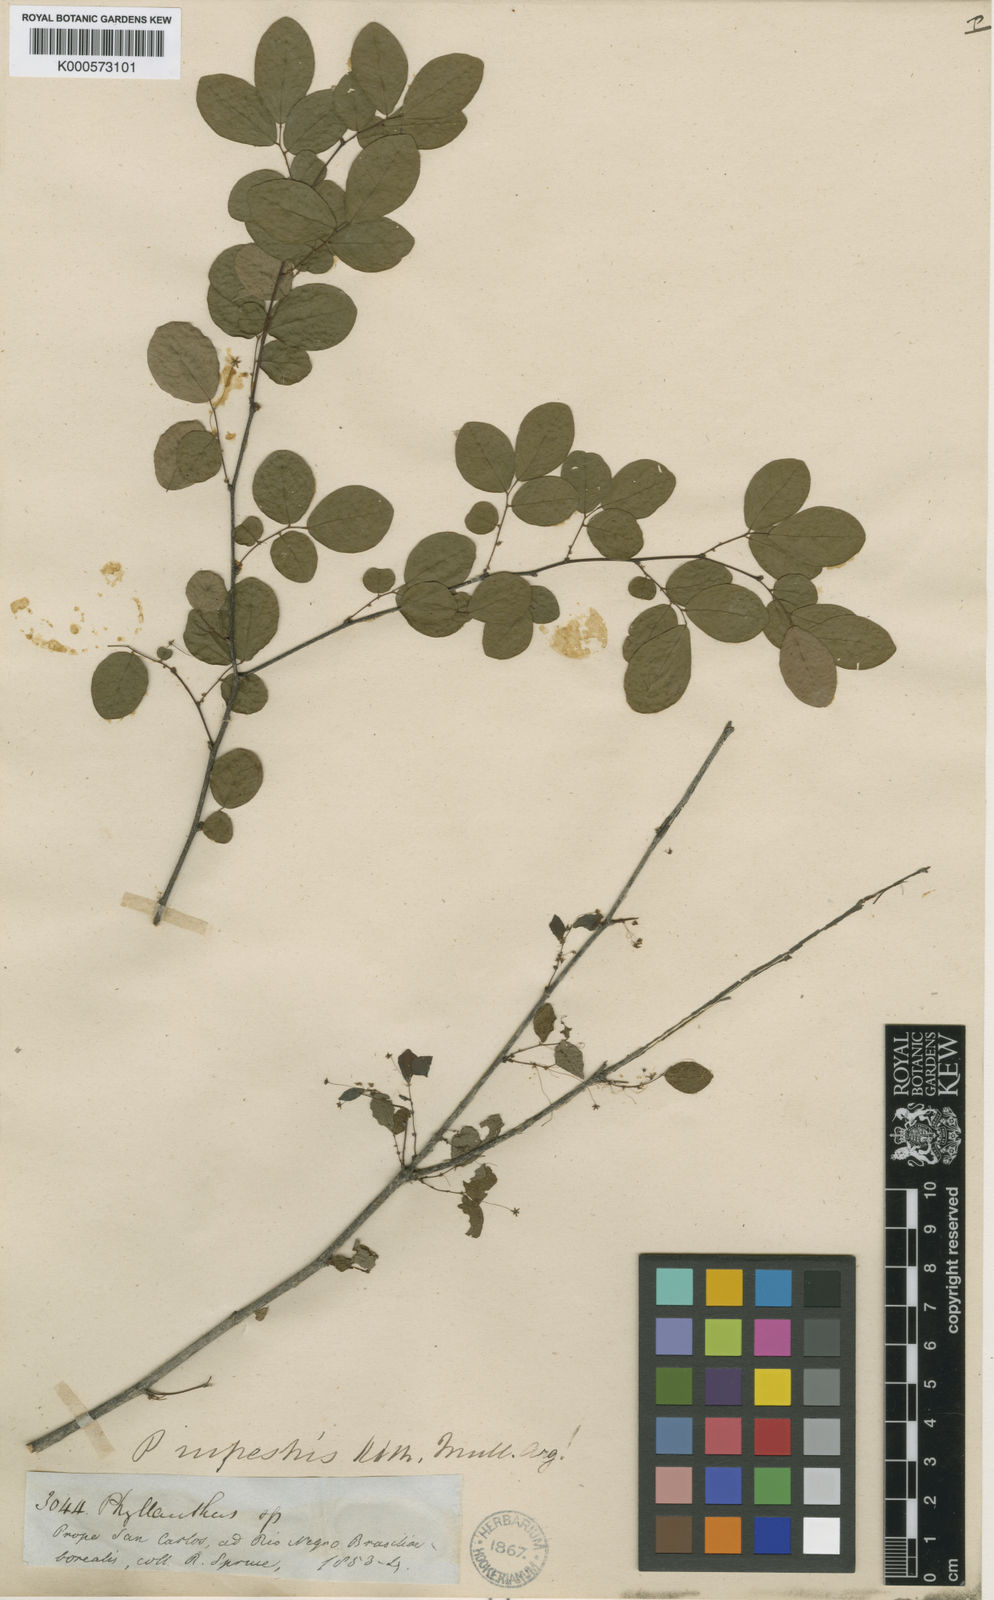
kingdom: Plantae
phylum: Tracheophyta
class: Magnoliopsida
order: Malpighiales
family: Phyllanthaceae
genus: Phyllanthus
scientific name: Phyllanthus rupestris
